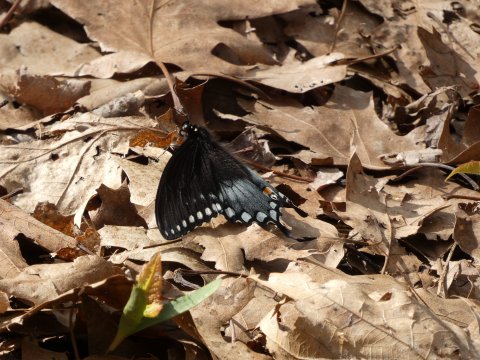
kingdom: Animalia
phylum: Arthropoda
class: Insecta
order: Lepidoptera
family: Papilionidae
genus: Pterourus
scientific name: Pterourus troilus
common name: Spicebush Swallowtail
